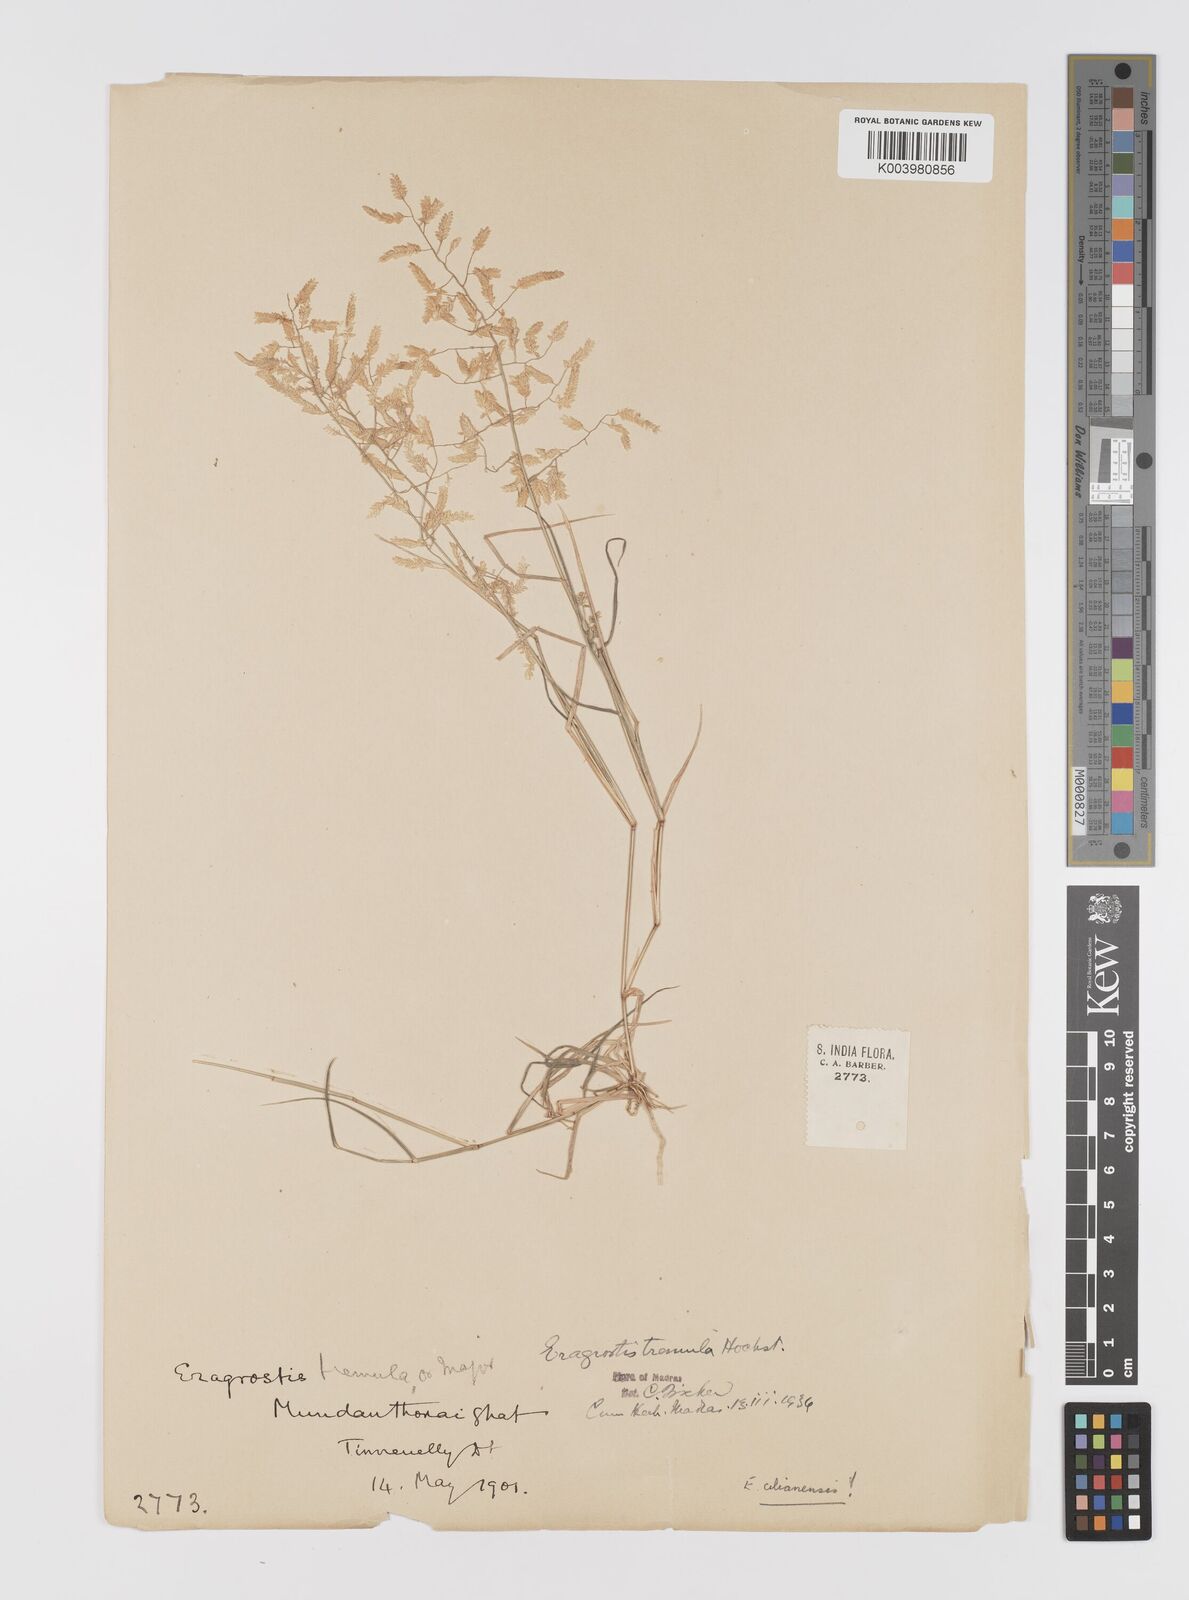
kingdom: Plantae
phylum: Tracheophyta
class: Liliopsida
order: Poales
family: Poaceae
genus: Eragrostis
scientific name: Eragrostis cilianensis
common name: Stinkgrass
